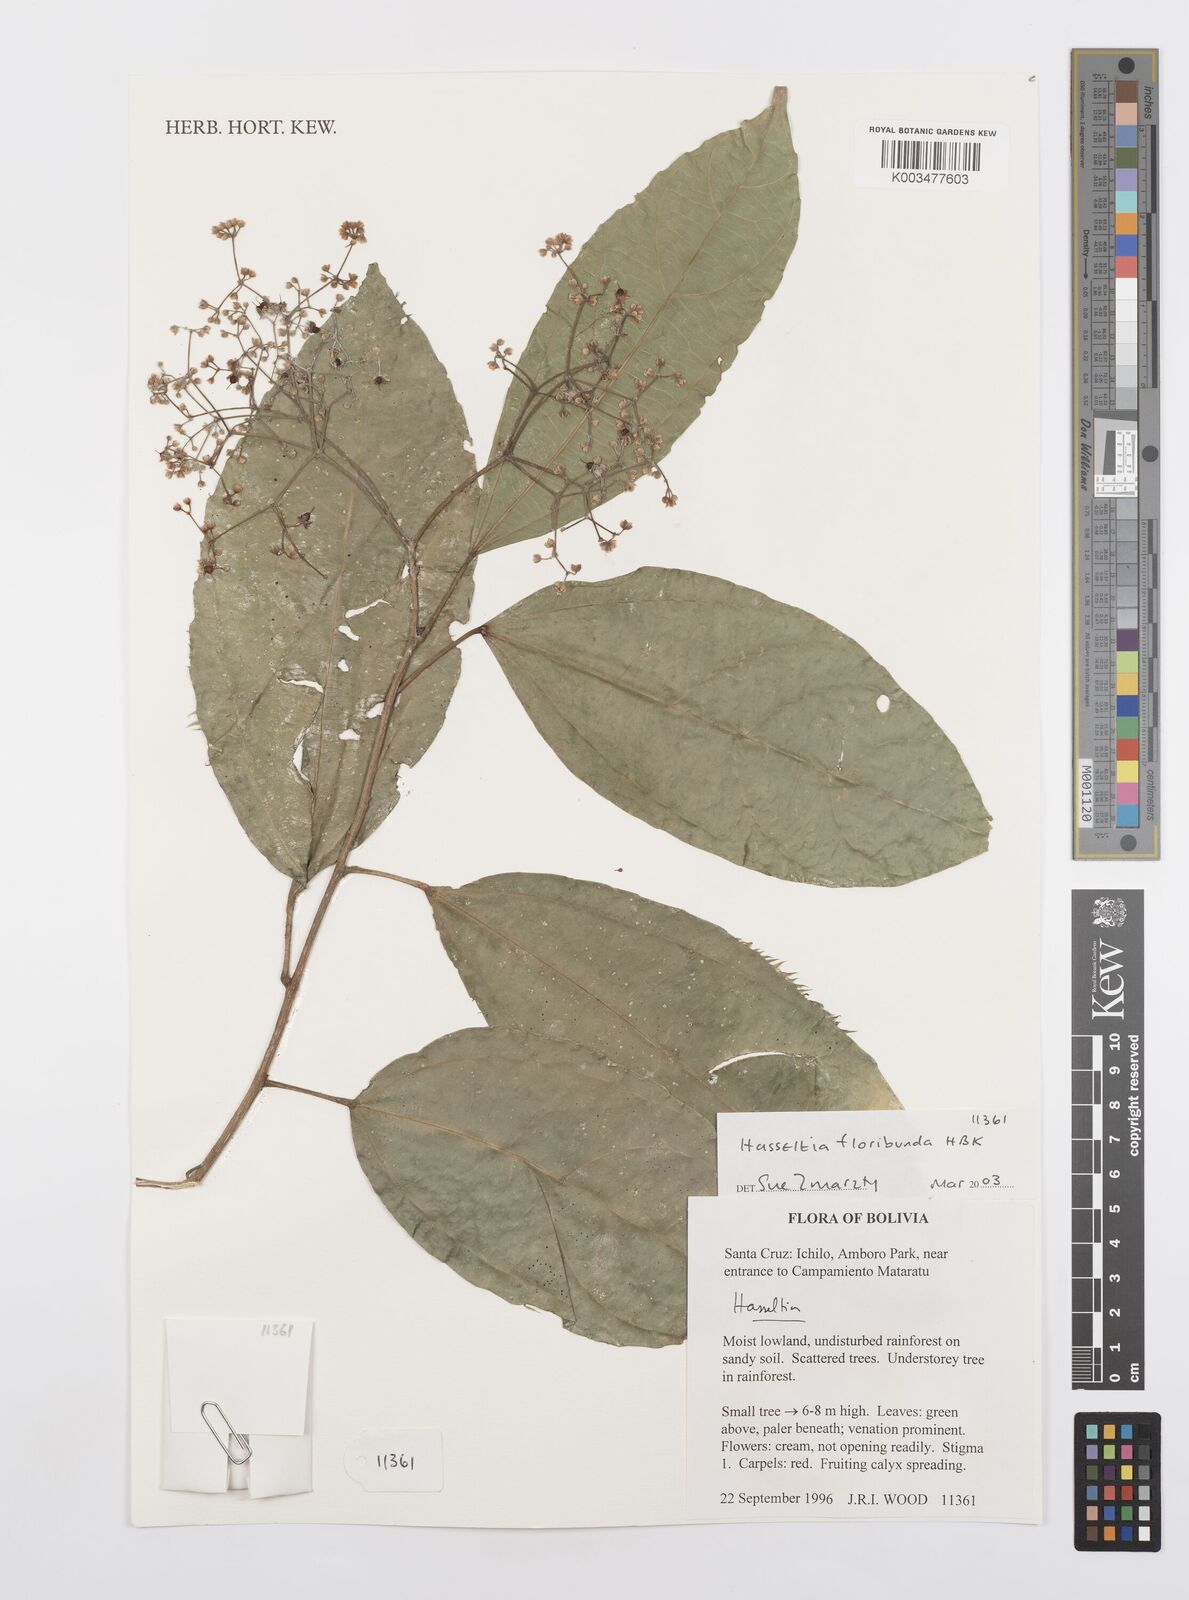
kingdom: Plantae
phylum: Tracheophyta
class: Magnoliopsida
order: Malpighiales
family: Salicaceae
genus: Hasseltia
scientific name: Hasseltia floribunda
